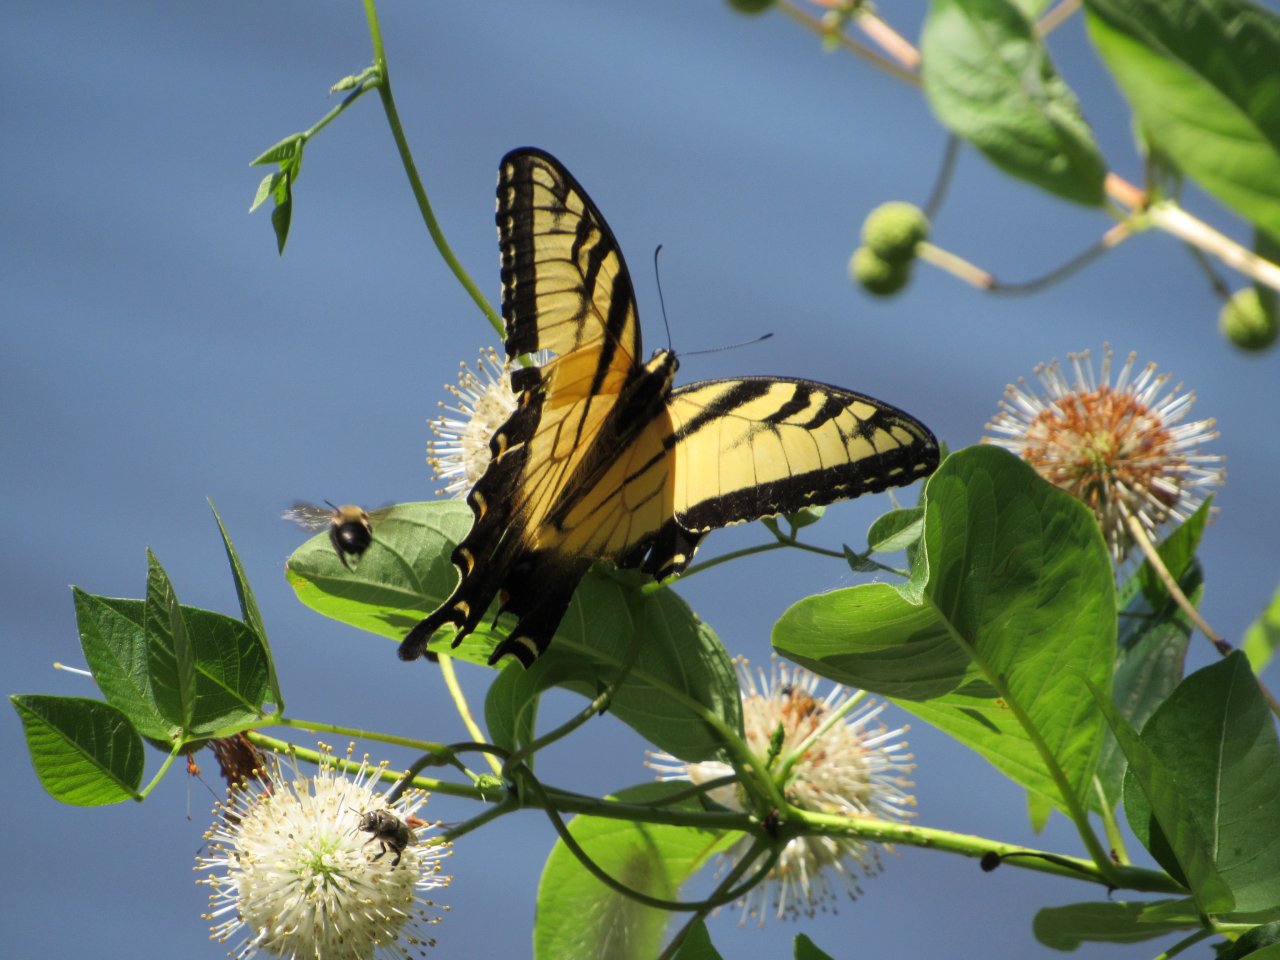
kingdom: Animalia
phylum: Arthropoda
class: Insecta
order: Lepidoptera
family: Papilionidae
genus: Pterourus
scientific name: Pterourus glaucus
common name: Eastern Tiger Swallowtail
